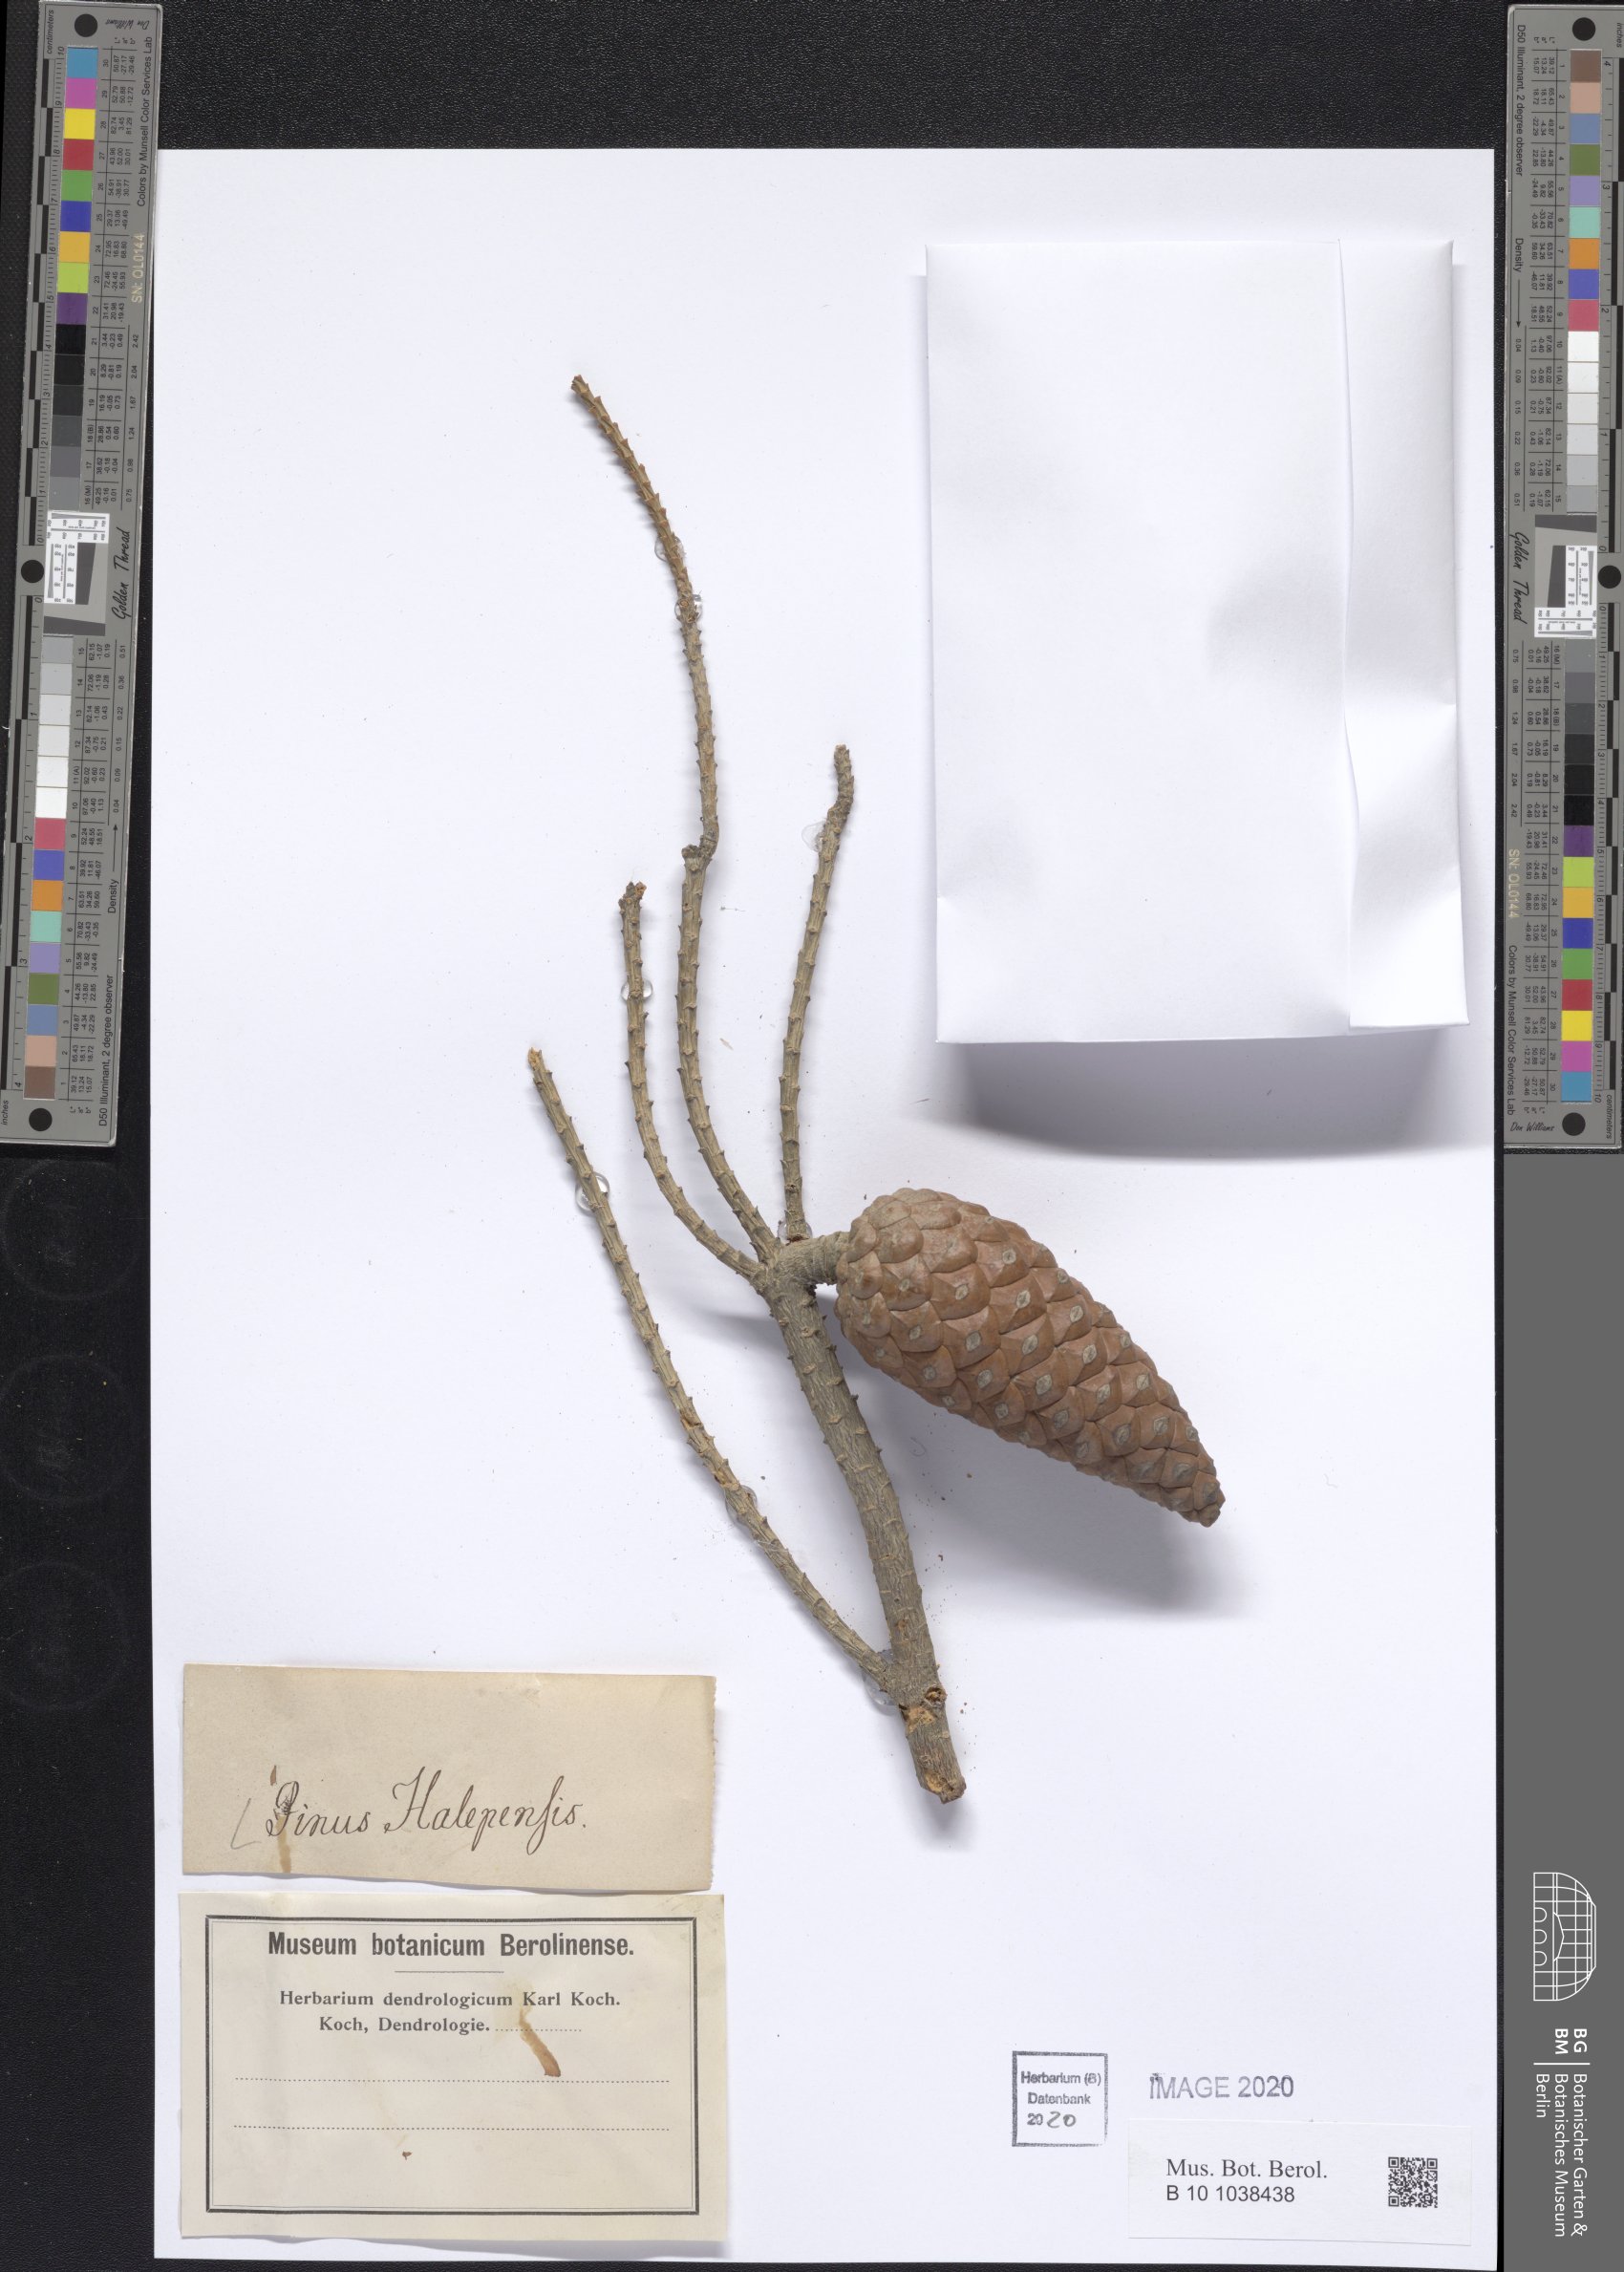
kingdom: Plantae
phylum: Tracheophyta
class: Pinopsida
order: Pinales
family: Pinaceae
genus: Pinus
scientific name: Pinus halepensis
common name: Aleppo pine
